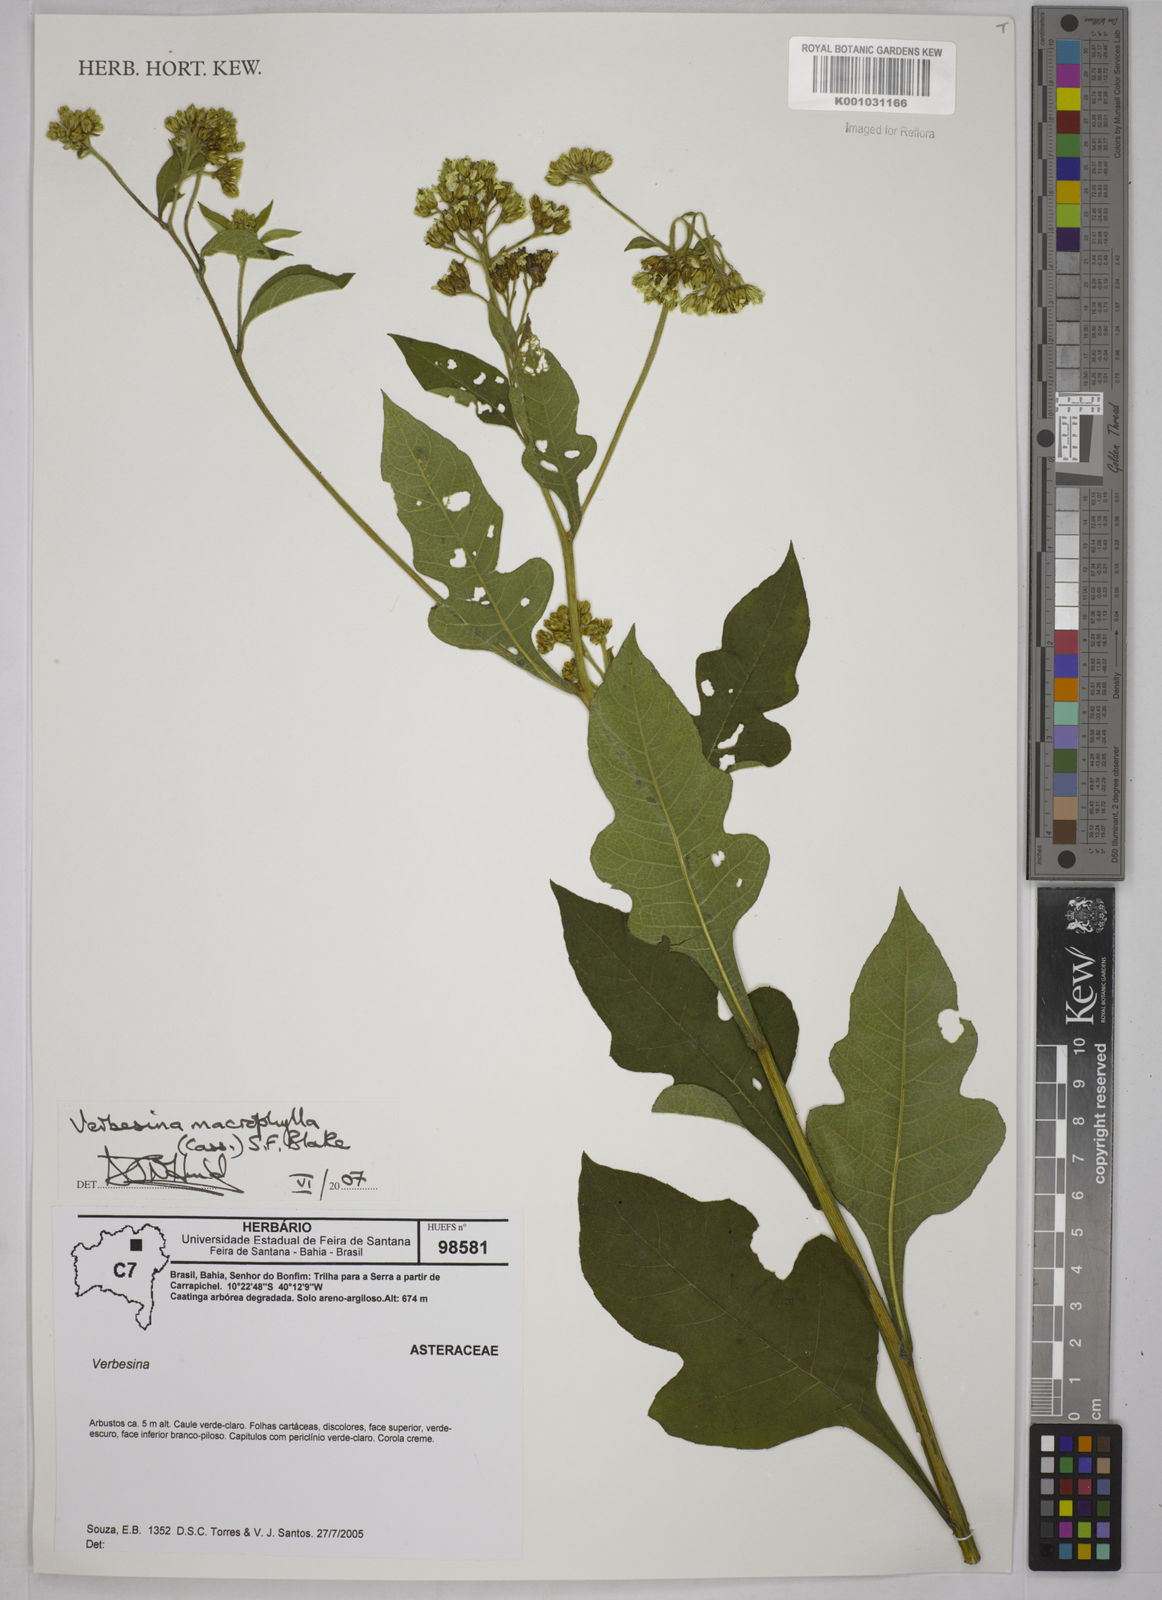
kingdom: Plantae
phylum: Tracheophyta
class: Magnoliopsida
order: Asterales
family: Asteraceae
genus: Verbesina
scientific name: Verbesina macrophylla
